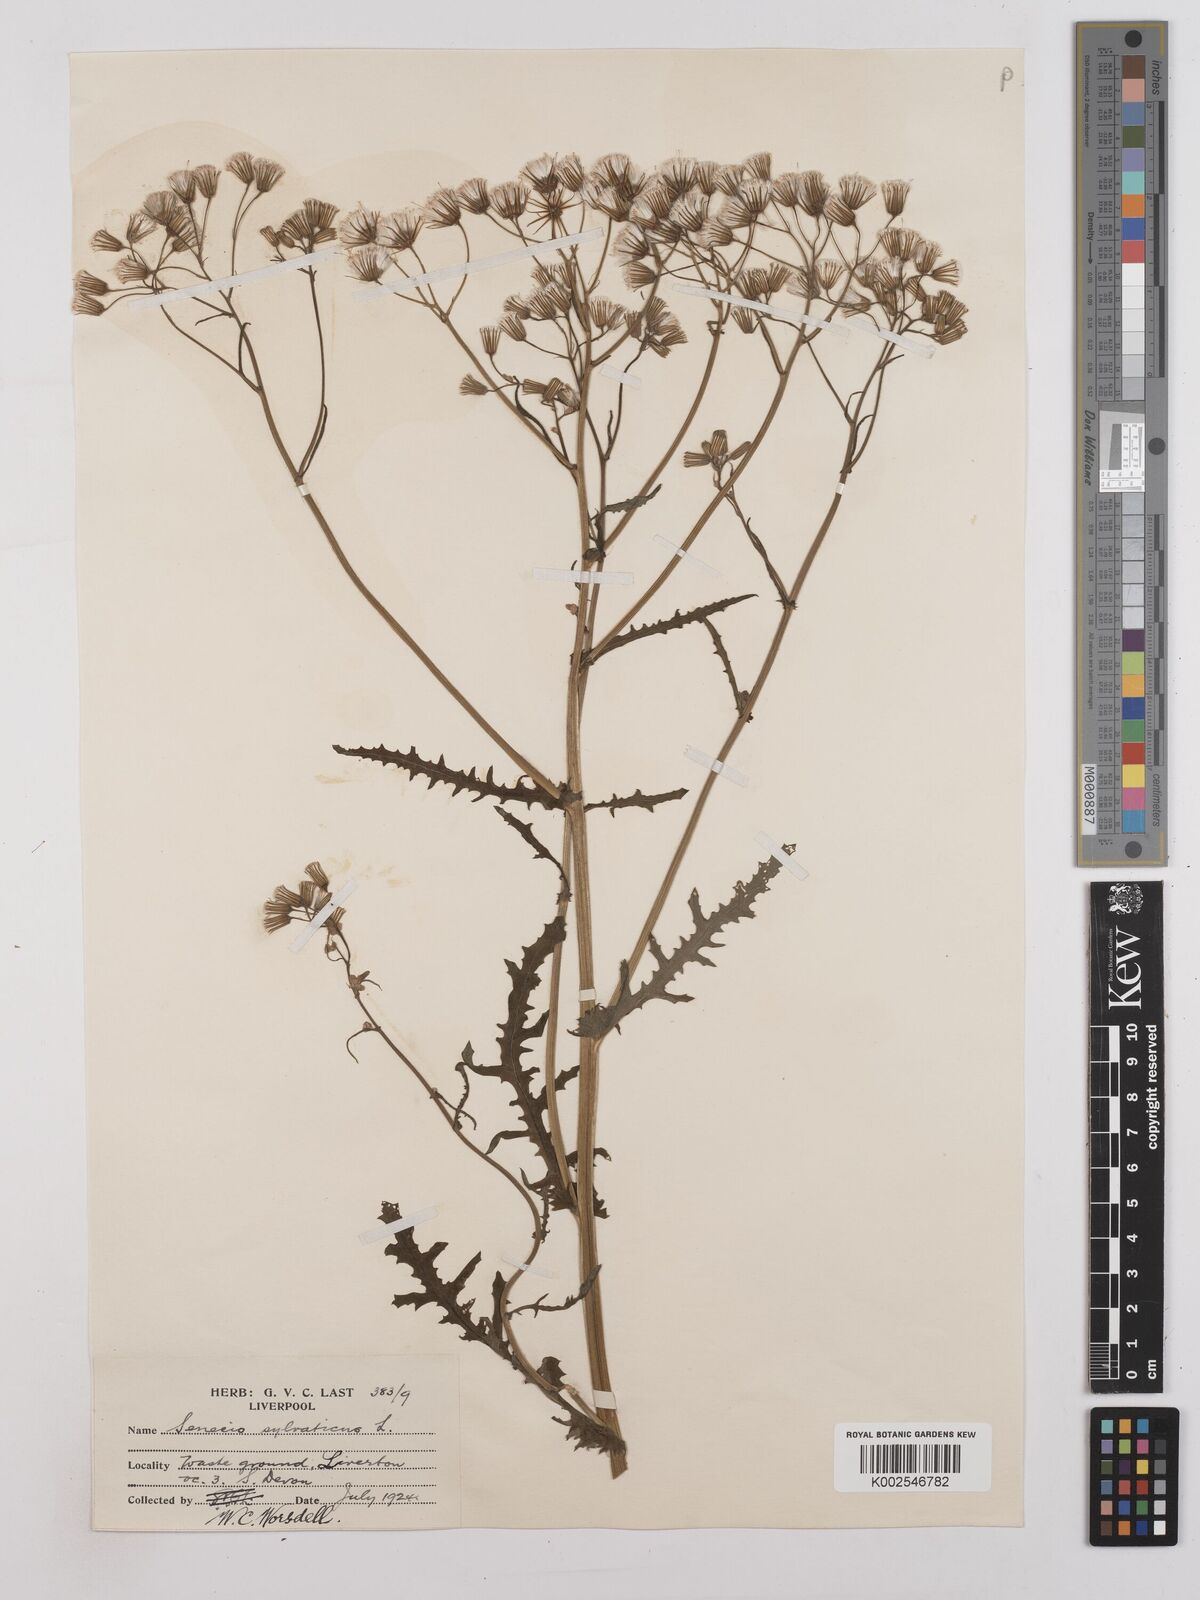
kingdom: Plantae
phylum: Tracheophyta
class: Magnoliopsida
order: Asterales
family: Asteraceae
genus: Senecio
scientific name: Senecio sylvaticus
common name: Woodland ragwort
